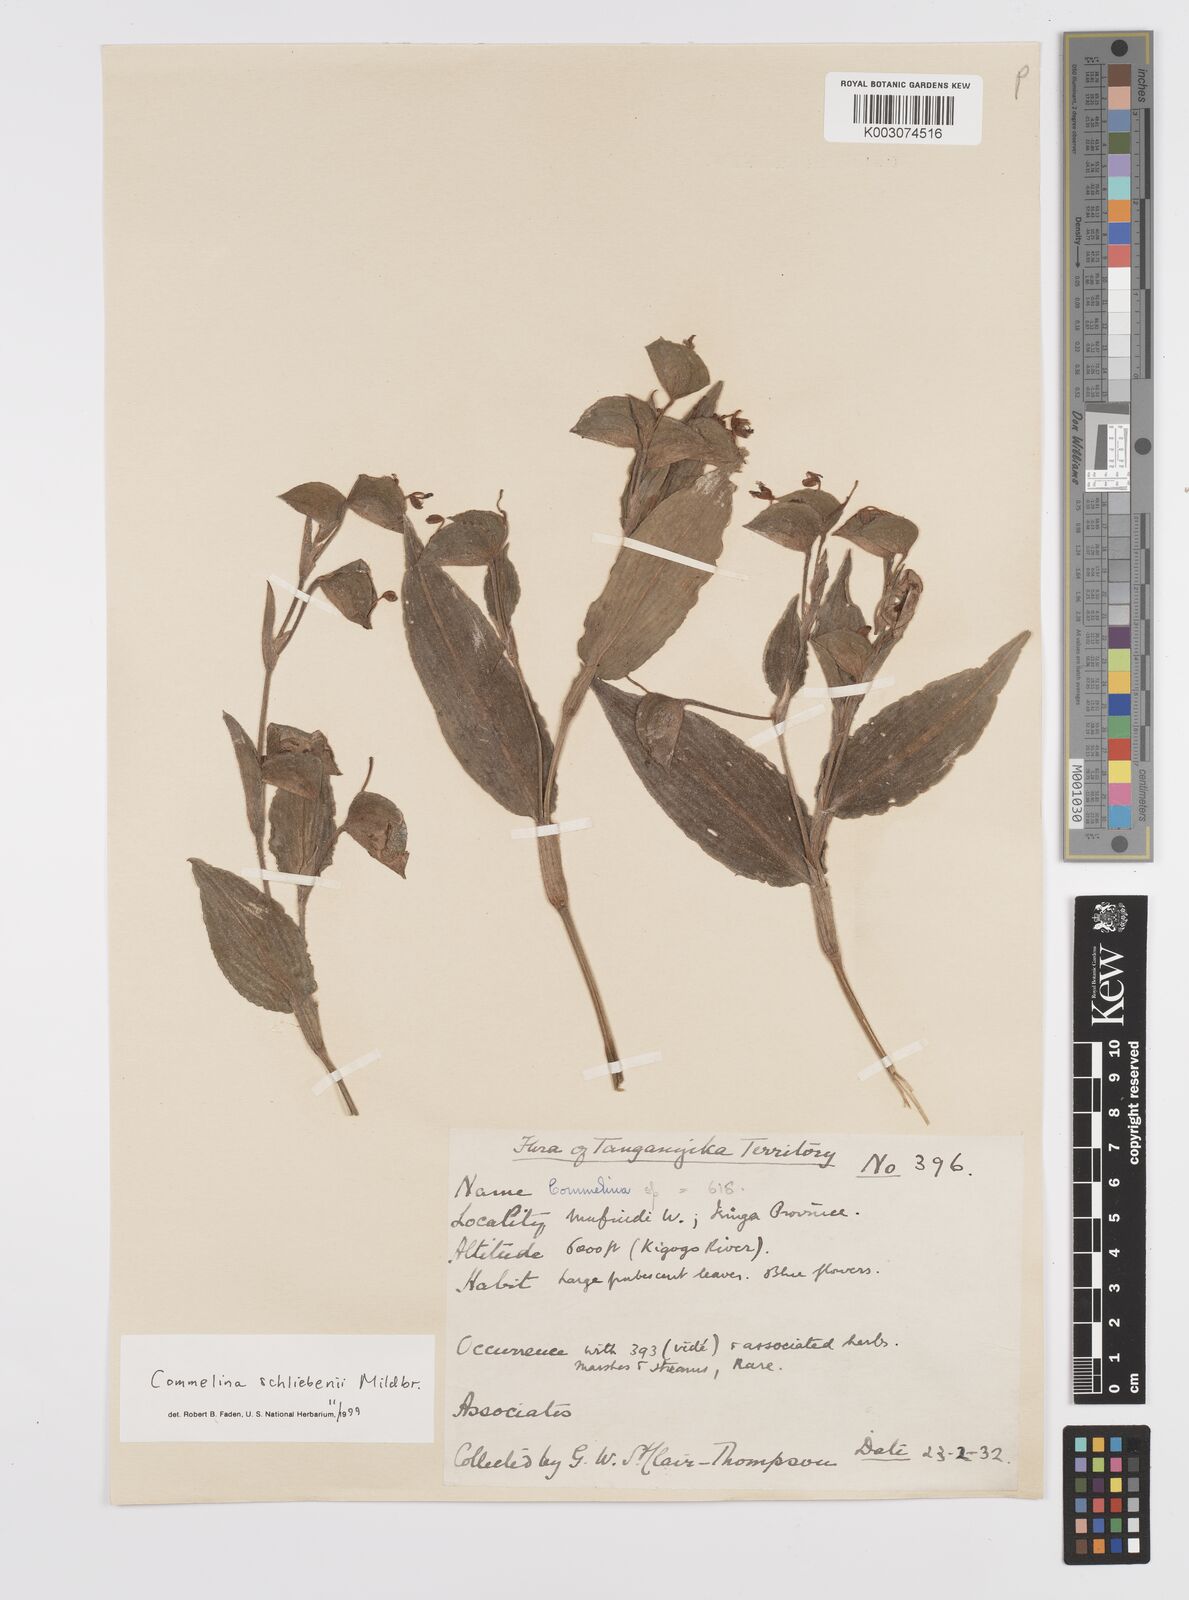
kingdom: Plantae
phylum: Tracheophyta
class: Liliopsida
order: Commelinales
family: Commelinaceae
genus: Commelina
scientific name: Commelina schliebenii
